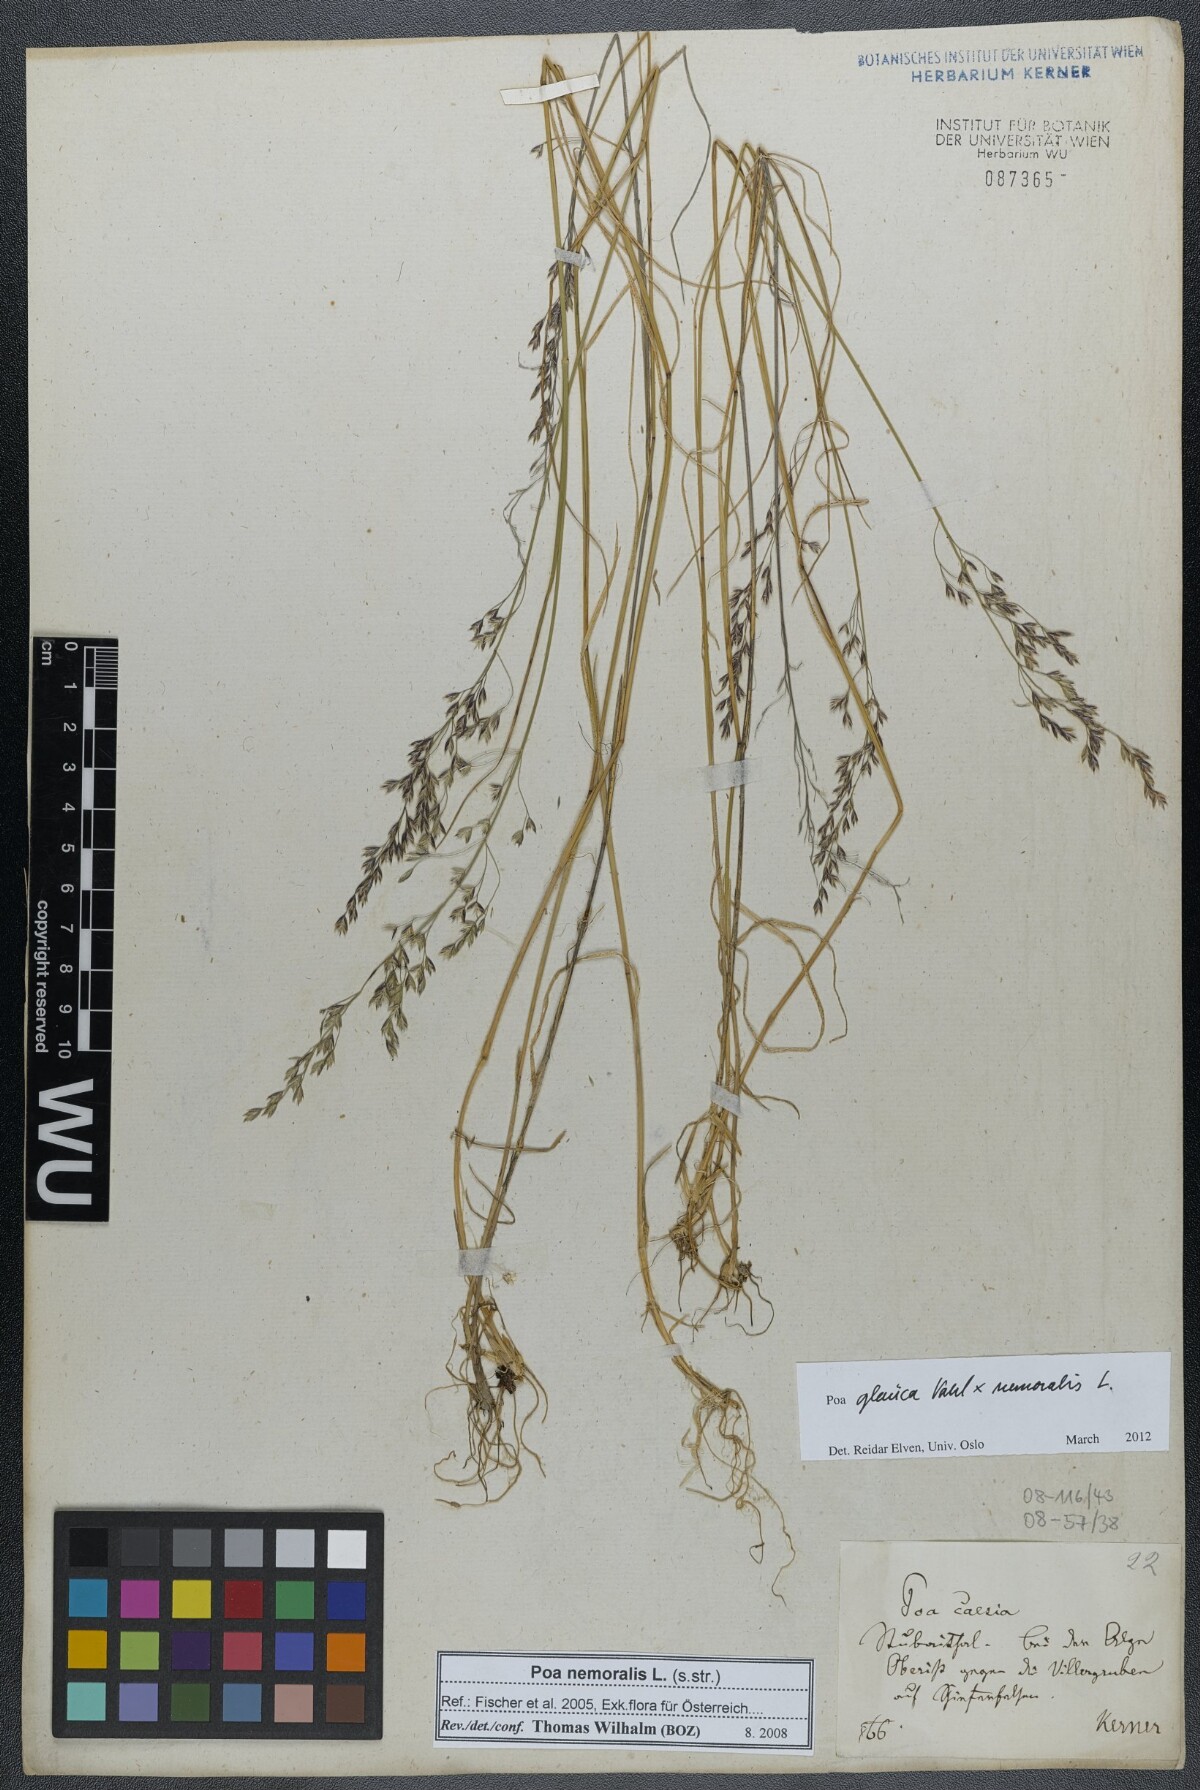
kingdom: Plantae
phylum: Tracheophyta
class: Liliopsida
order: Poales
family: Poaceae
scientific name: Poaceae
